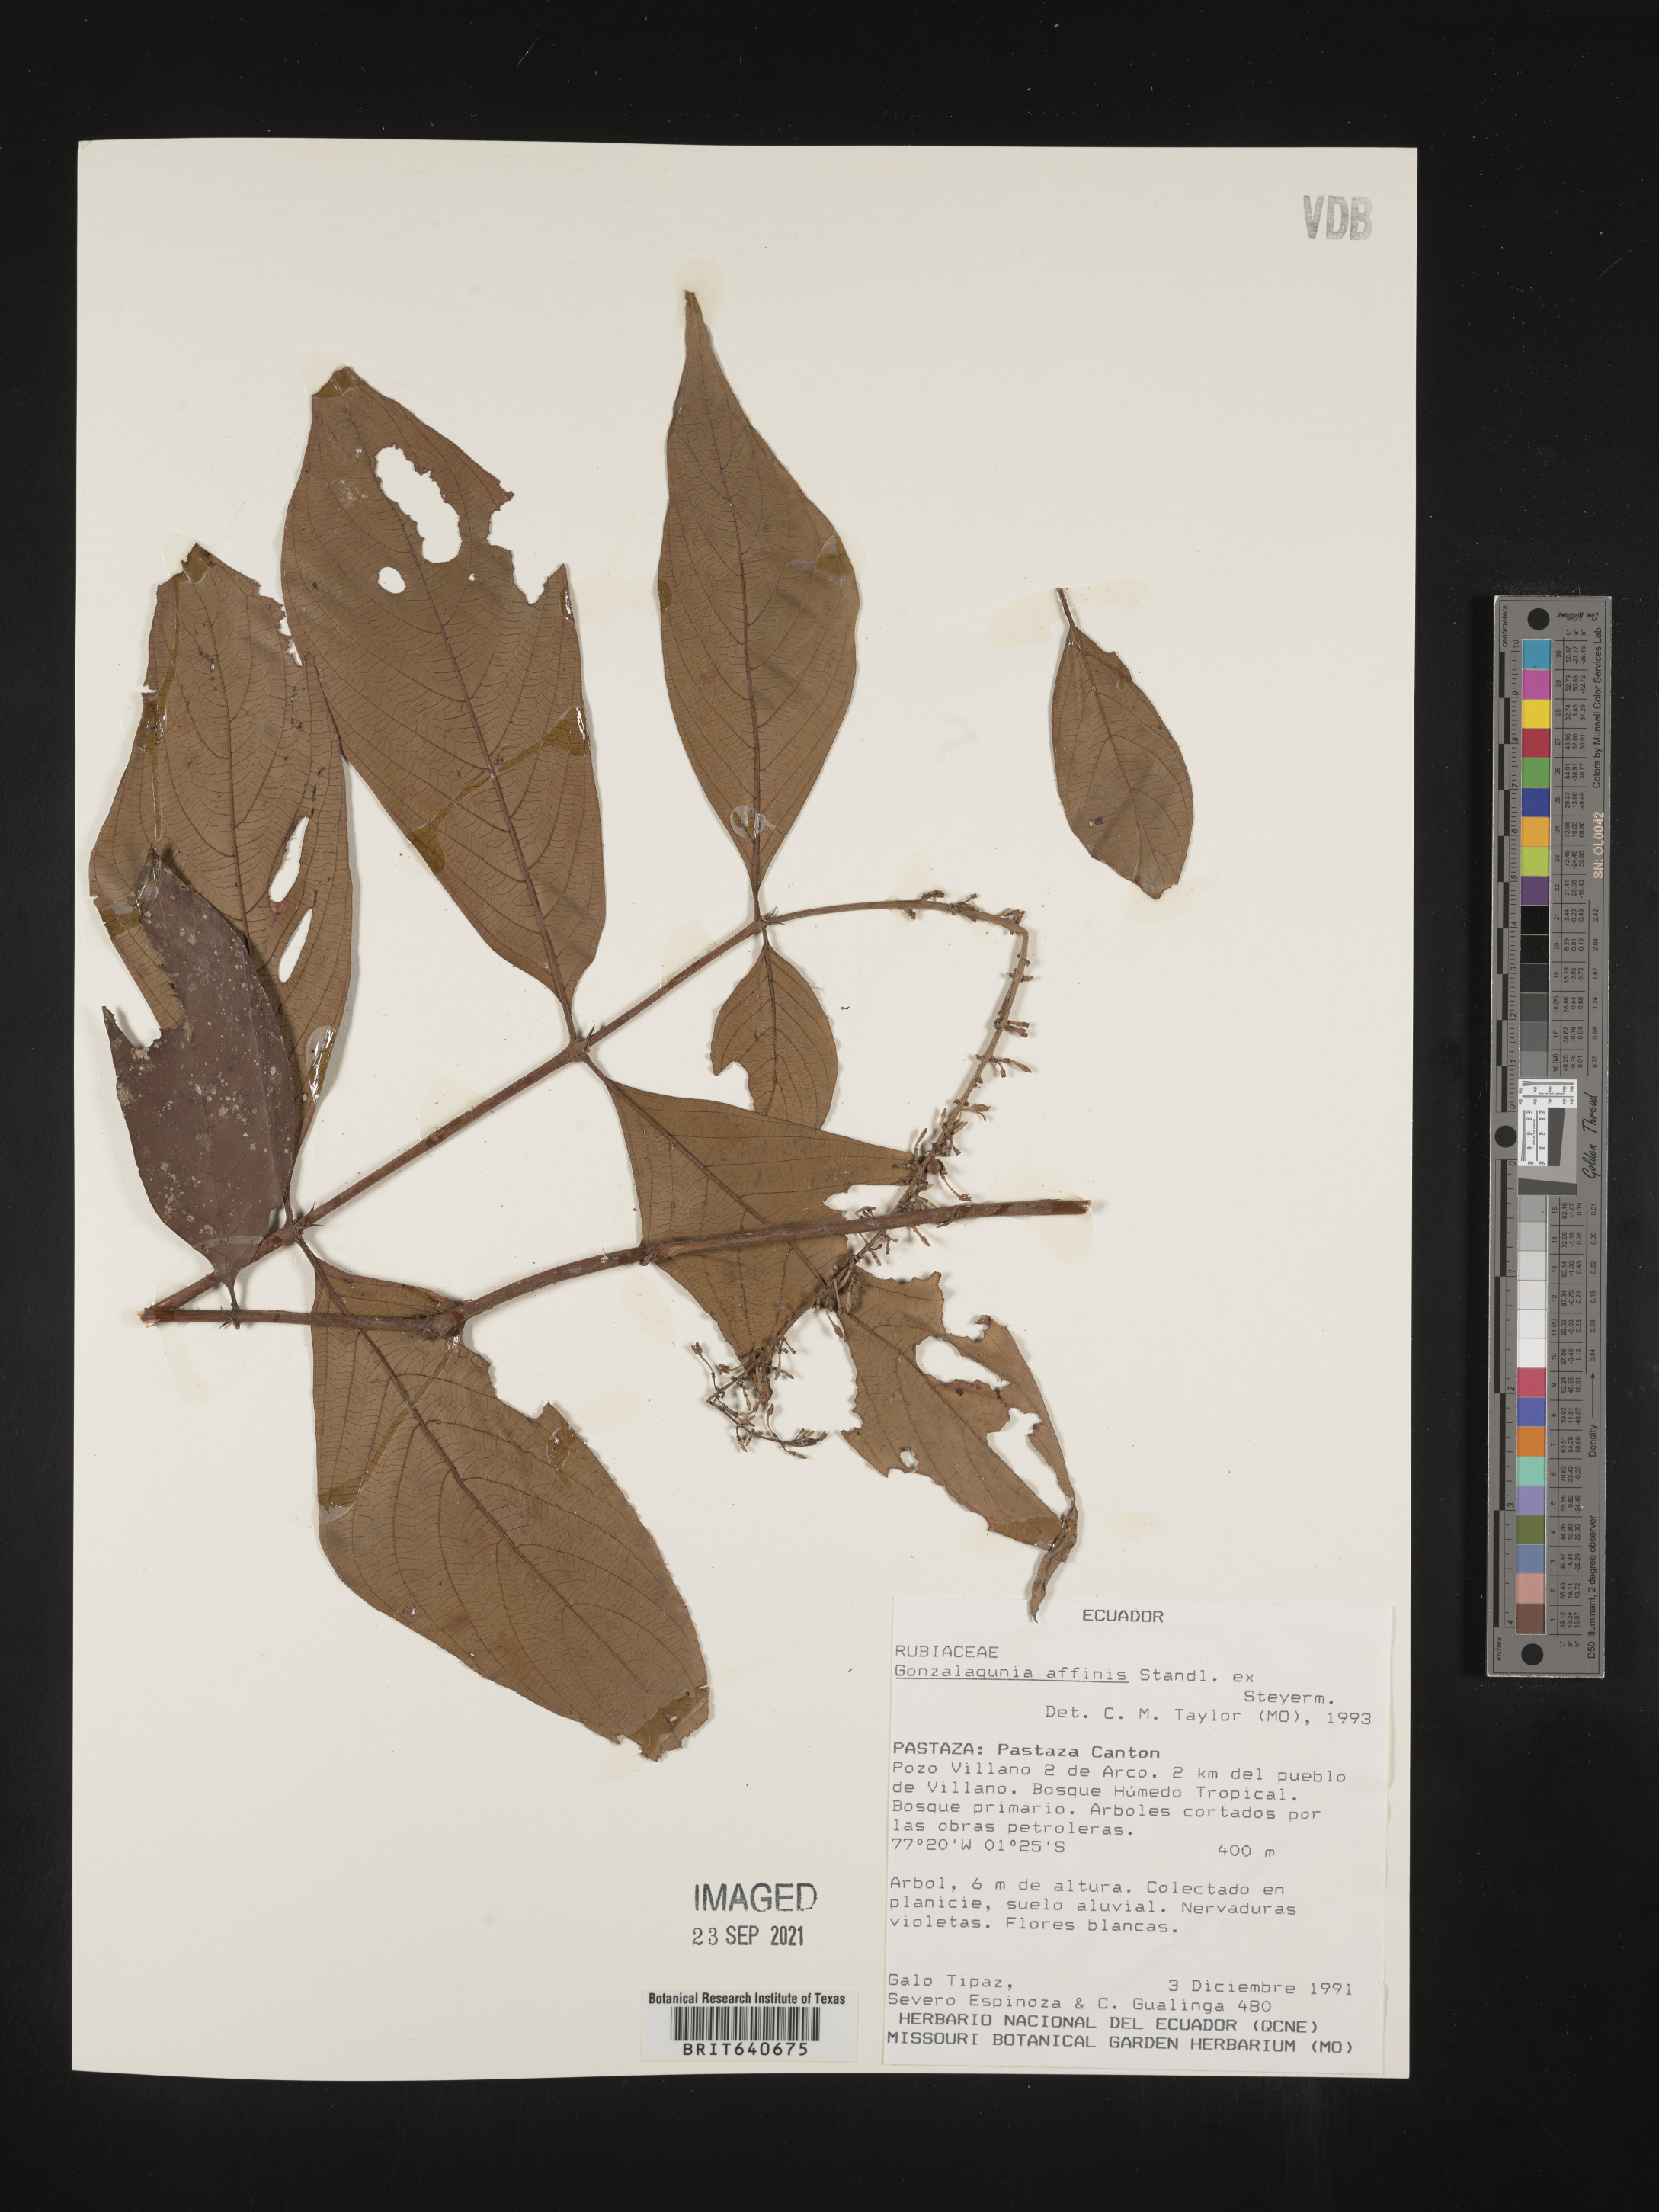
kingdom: Plantae
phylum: Tracheophyta
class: Magnoliopsida
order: Gentianales
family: Rubiaceae
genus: Gonzalagunia
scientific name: Gonzalagunia
